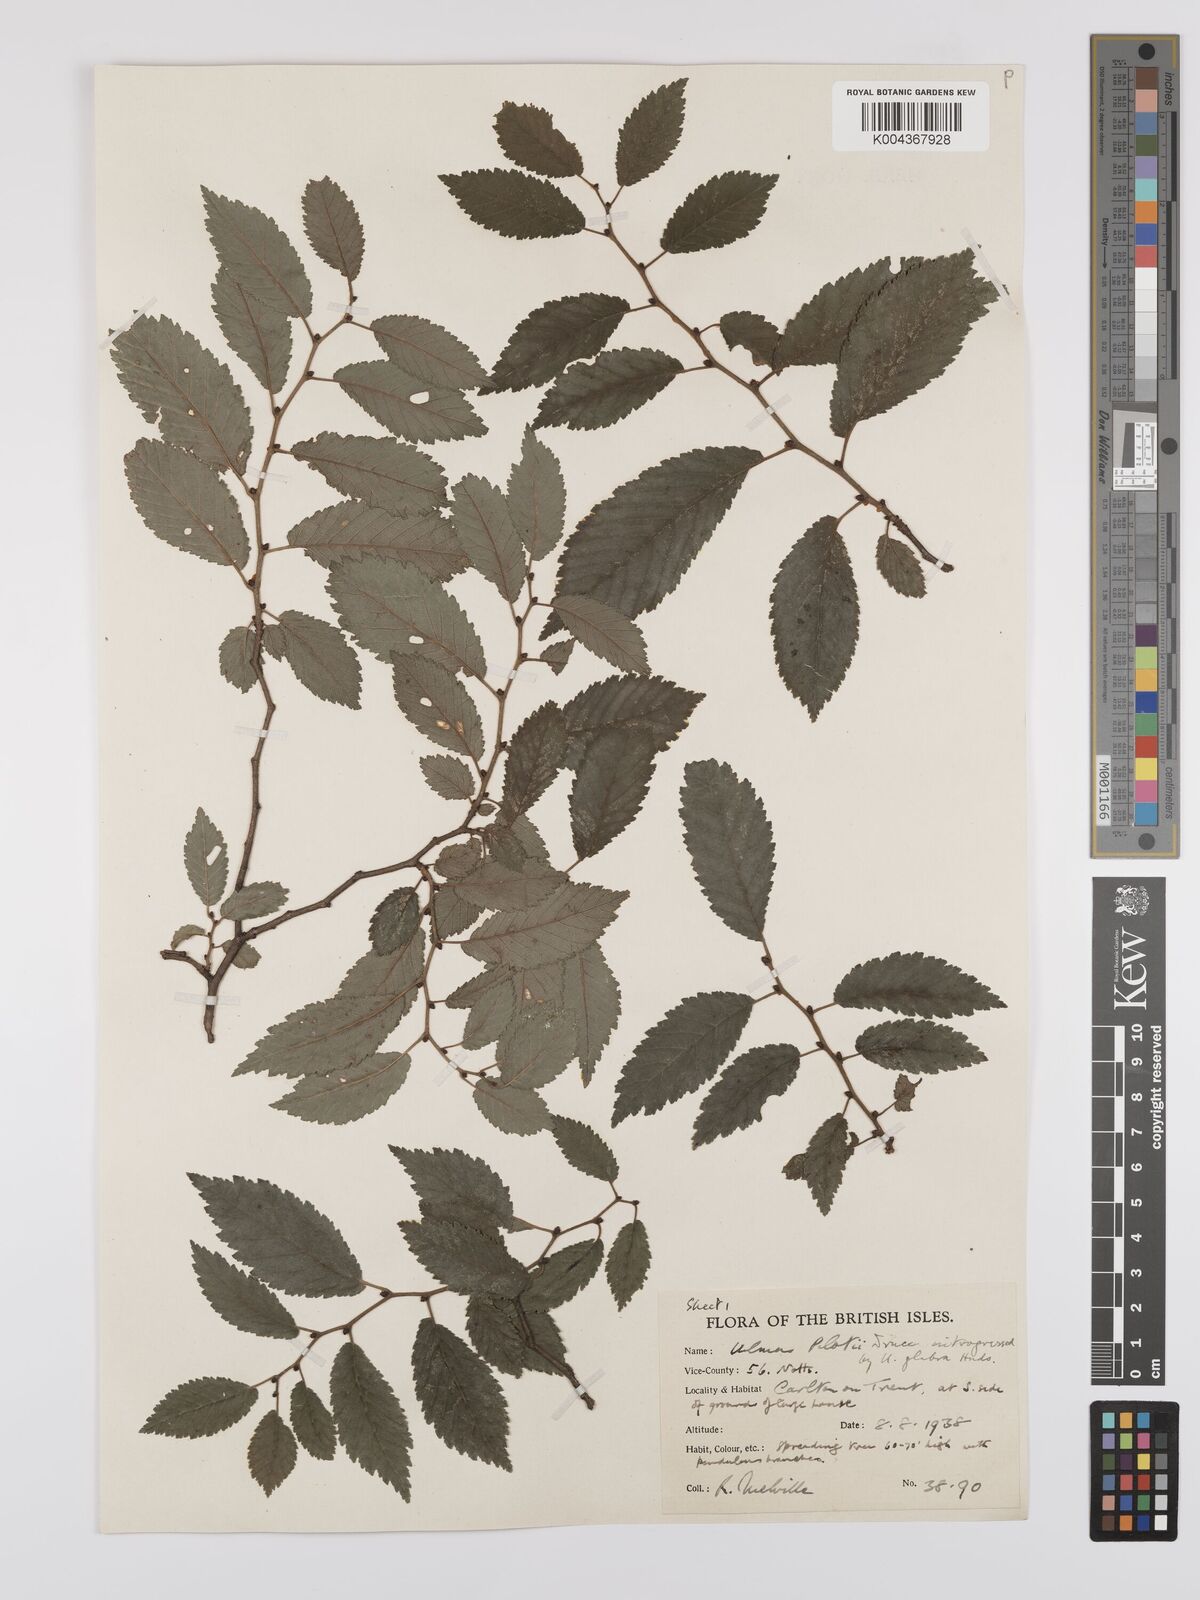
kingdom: Plantae
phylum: Tracheophyta
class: Magnoliopsida
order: Rosales
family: Ulmaceae
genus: Ulmus
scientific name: Ulmus
